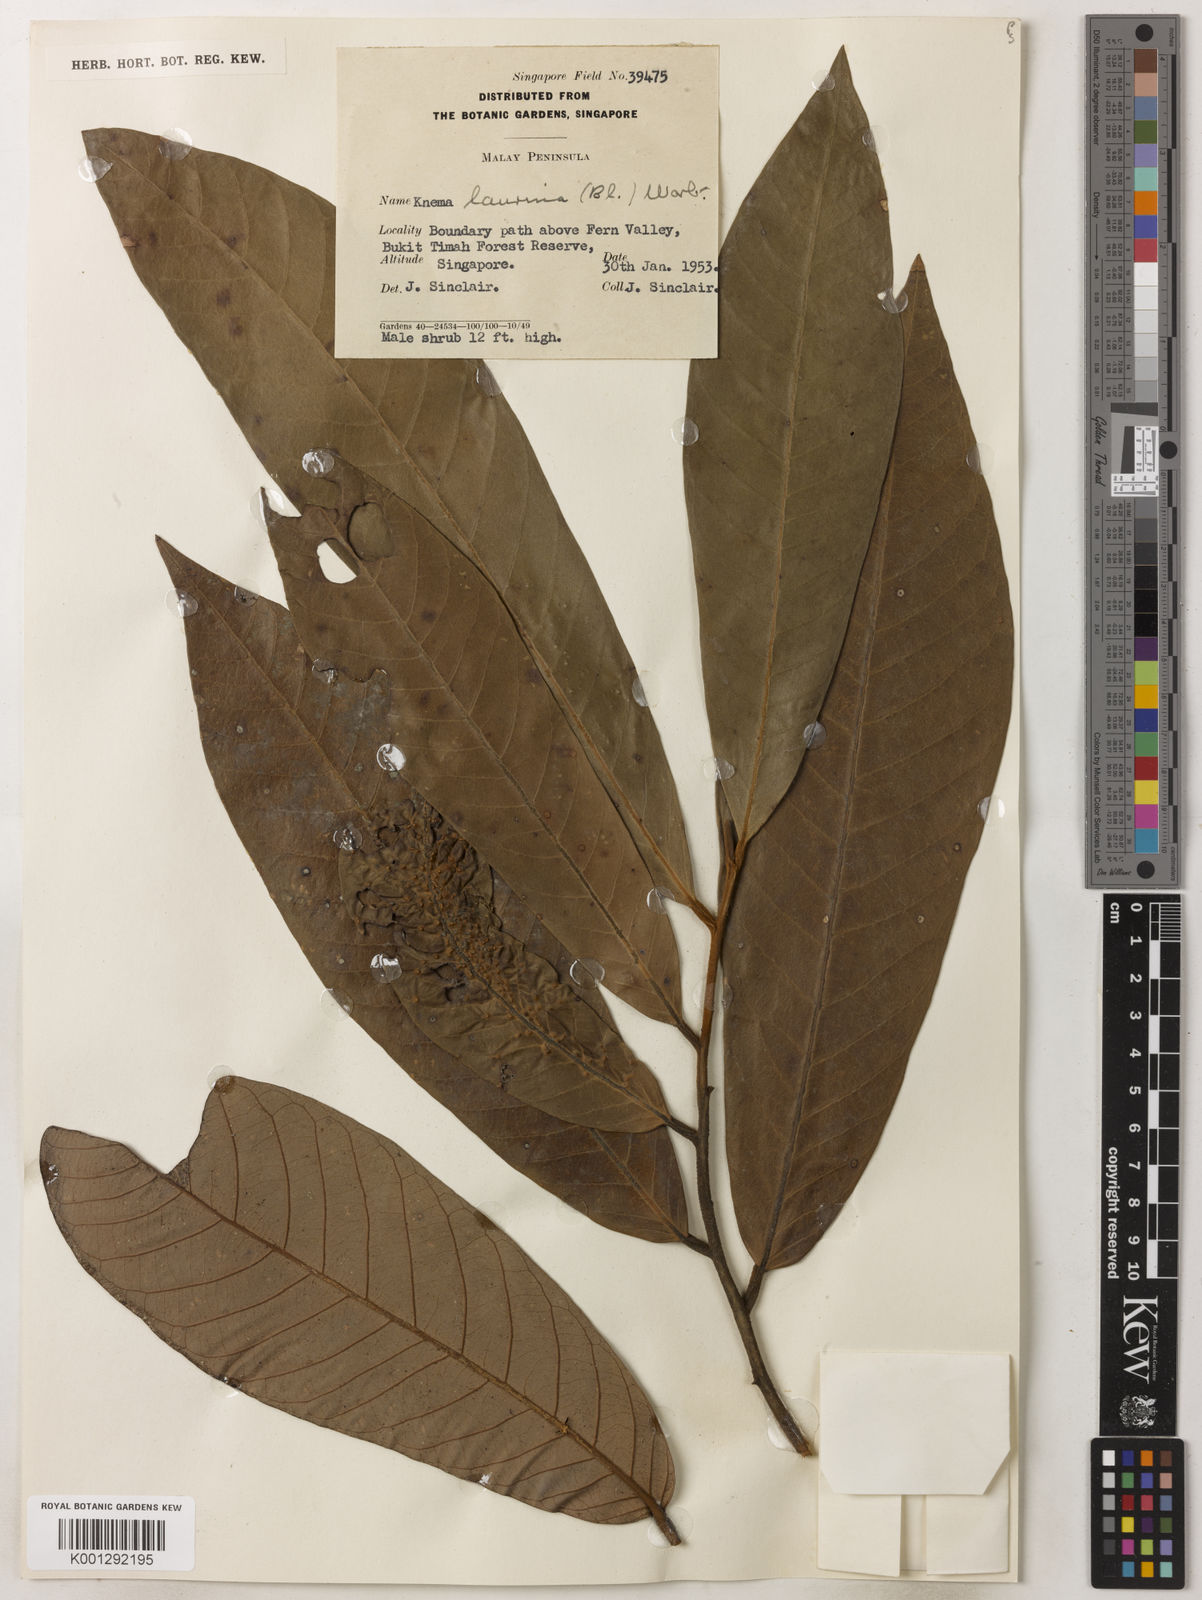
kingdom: Plantae
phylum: Tracheophyta
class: Magnoliopsida
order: Magnoliales
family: Myristicaceae
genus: Knema
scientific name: Knema laurina
